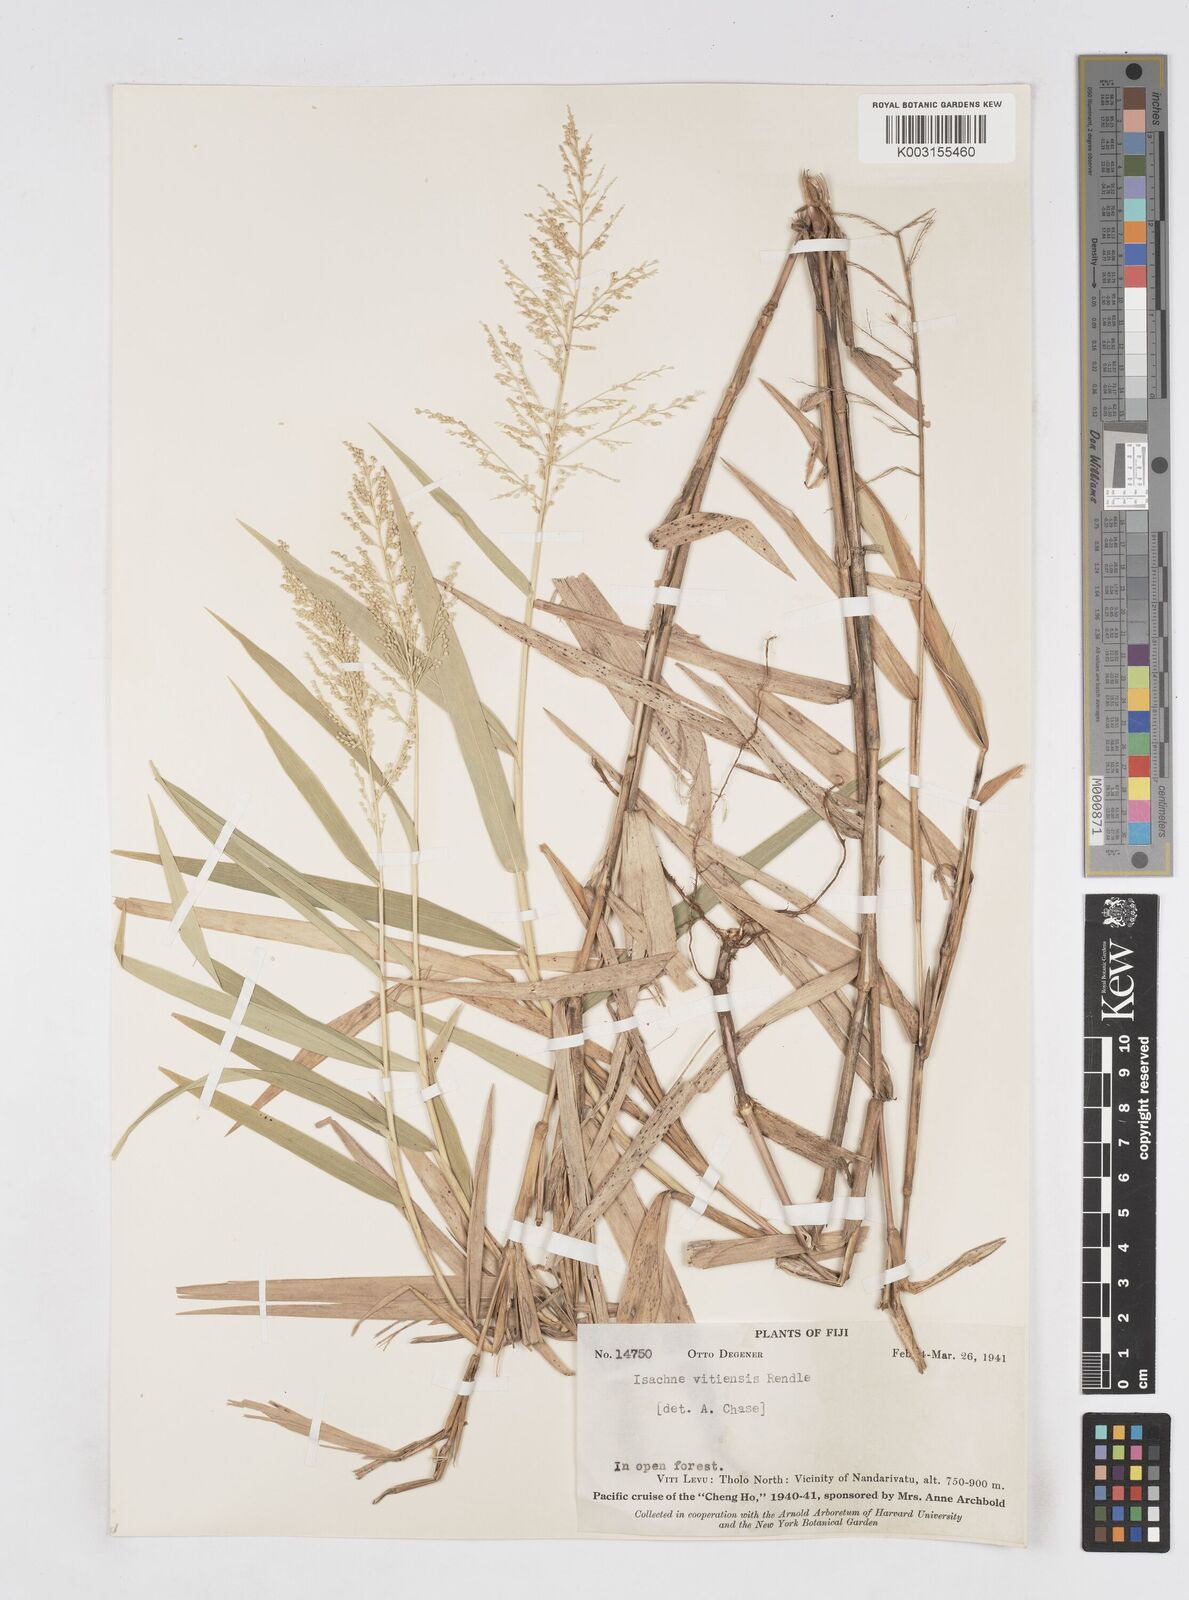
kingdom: Plantae
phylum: Tracheophyta
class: Liliopsida
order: Poales
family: Poaceae
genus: Isachne
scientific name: Isachne vitiensis
